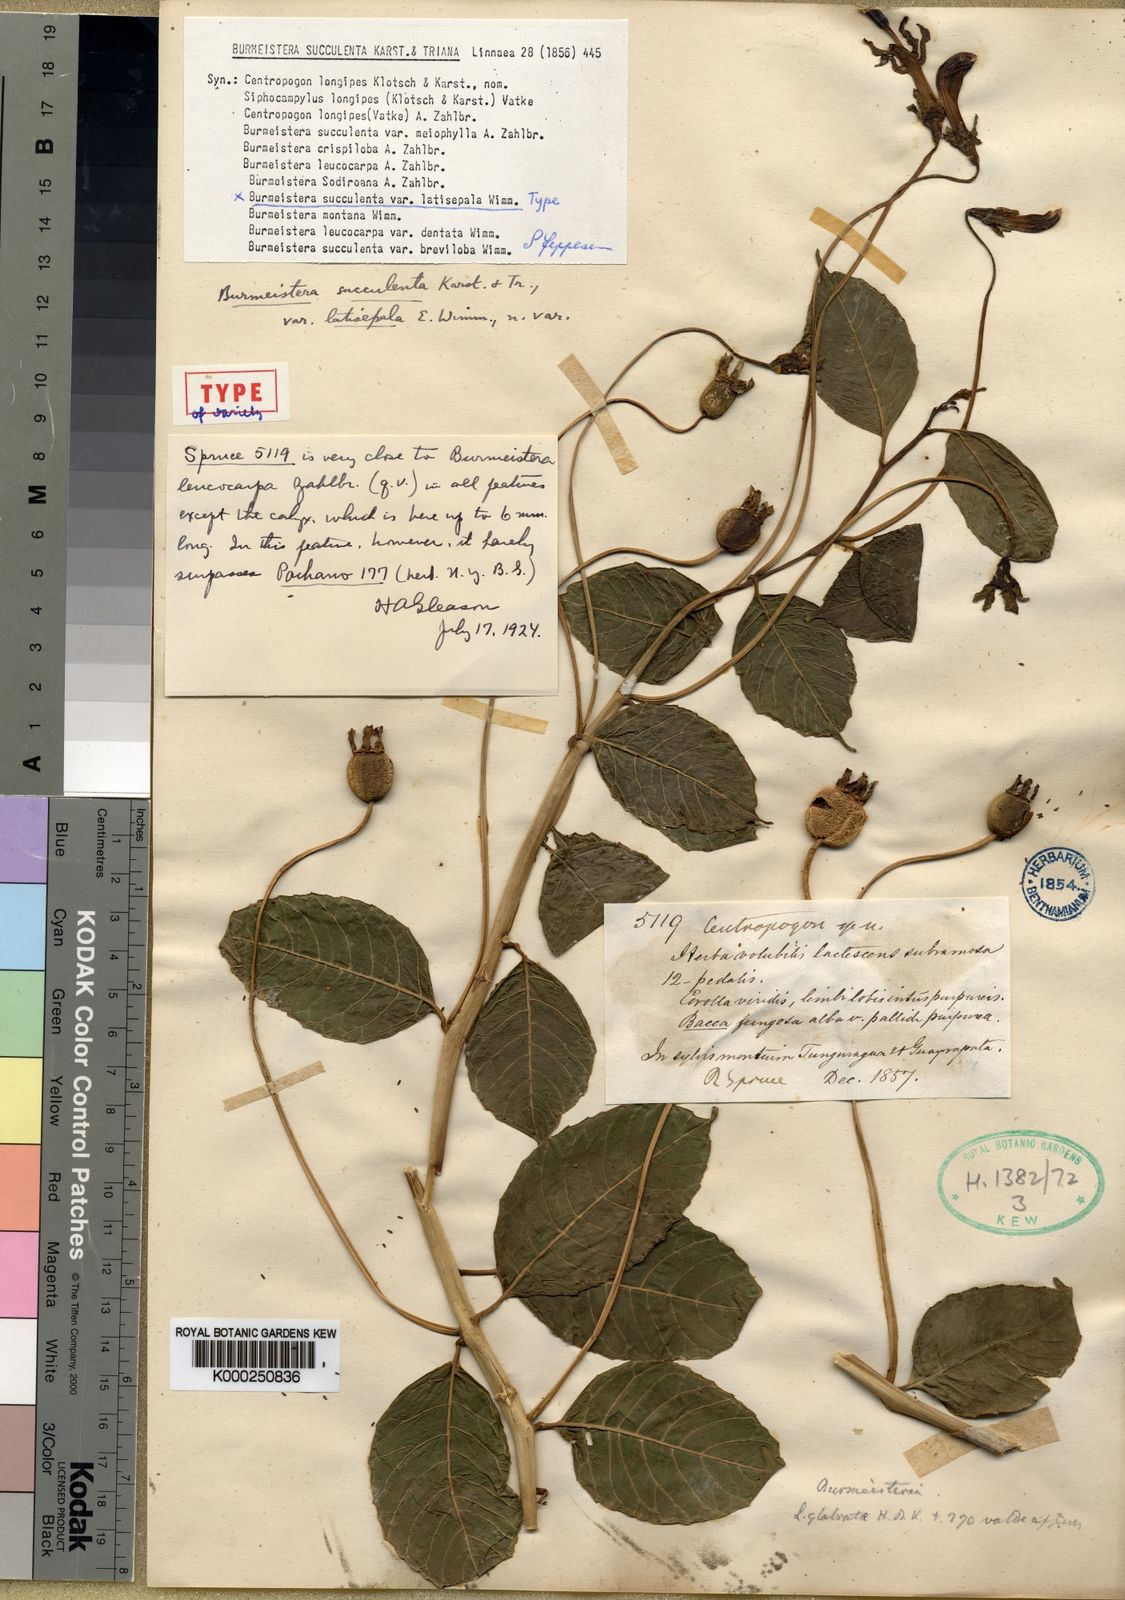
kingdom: Plantae
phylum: Tracheophyta
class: Magnoliopsida
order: Asterales
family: Campanulaceae
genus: Burmeistera
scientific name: Burmeistera succulenta
